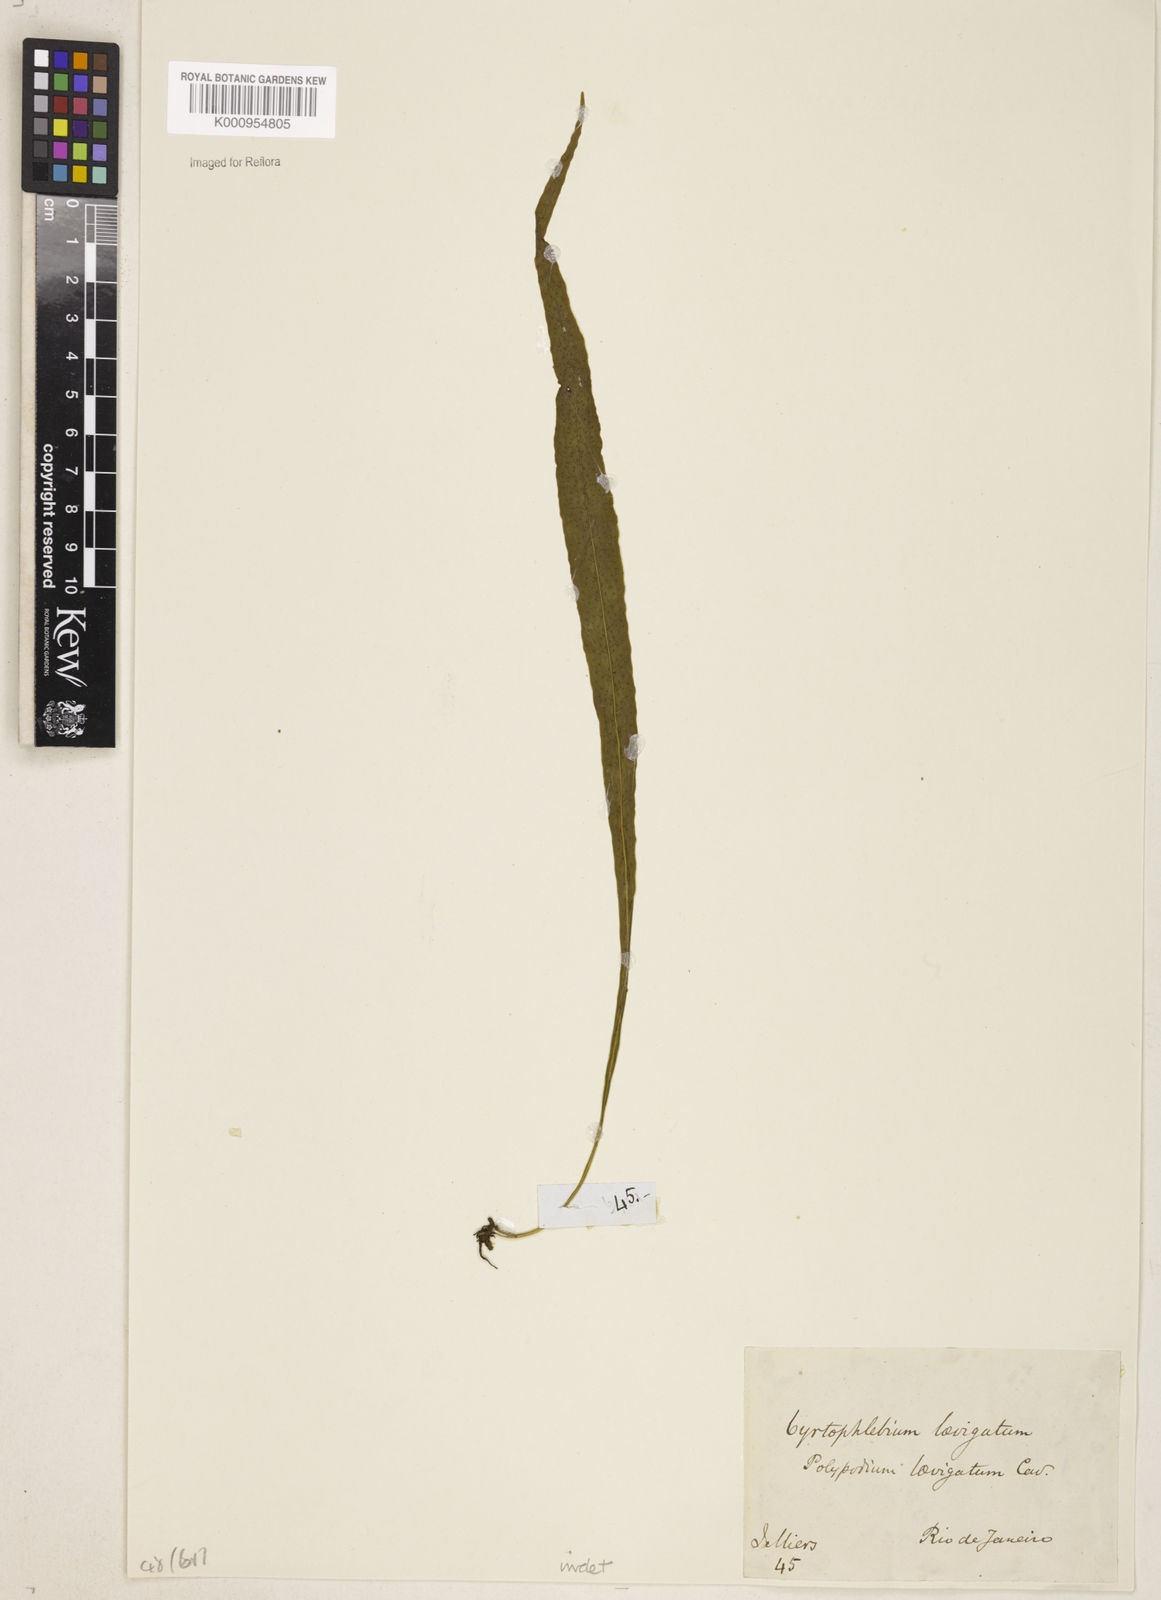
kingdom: Plantae
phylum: Tracheophyta
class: Polypodiopsida
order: Polypodiales
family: Polypodiaceae
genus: Campyloneurum
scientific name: Campyloneurum
